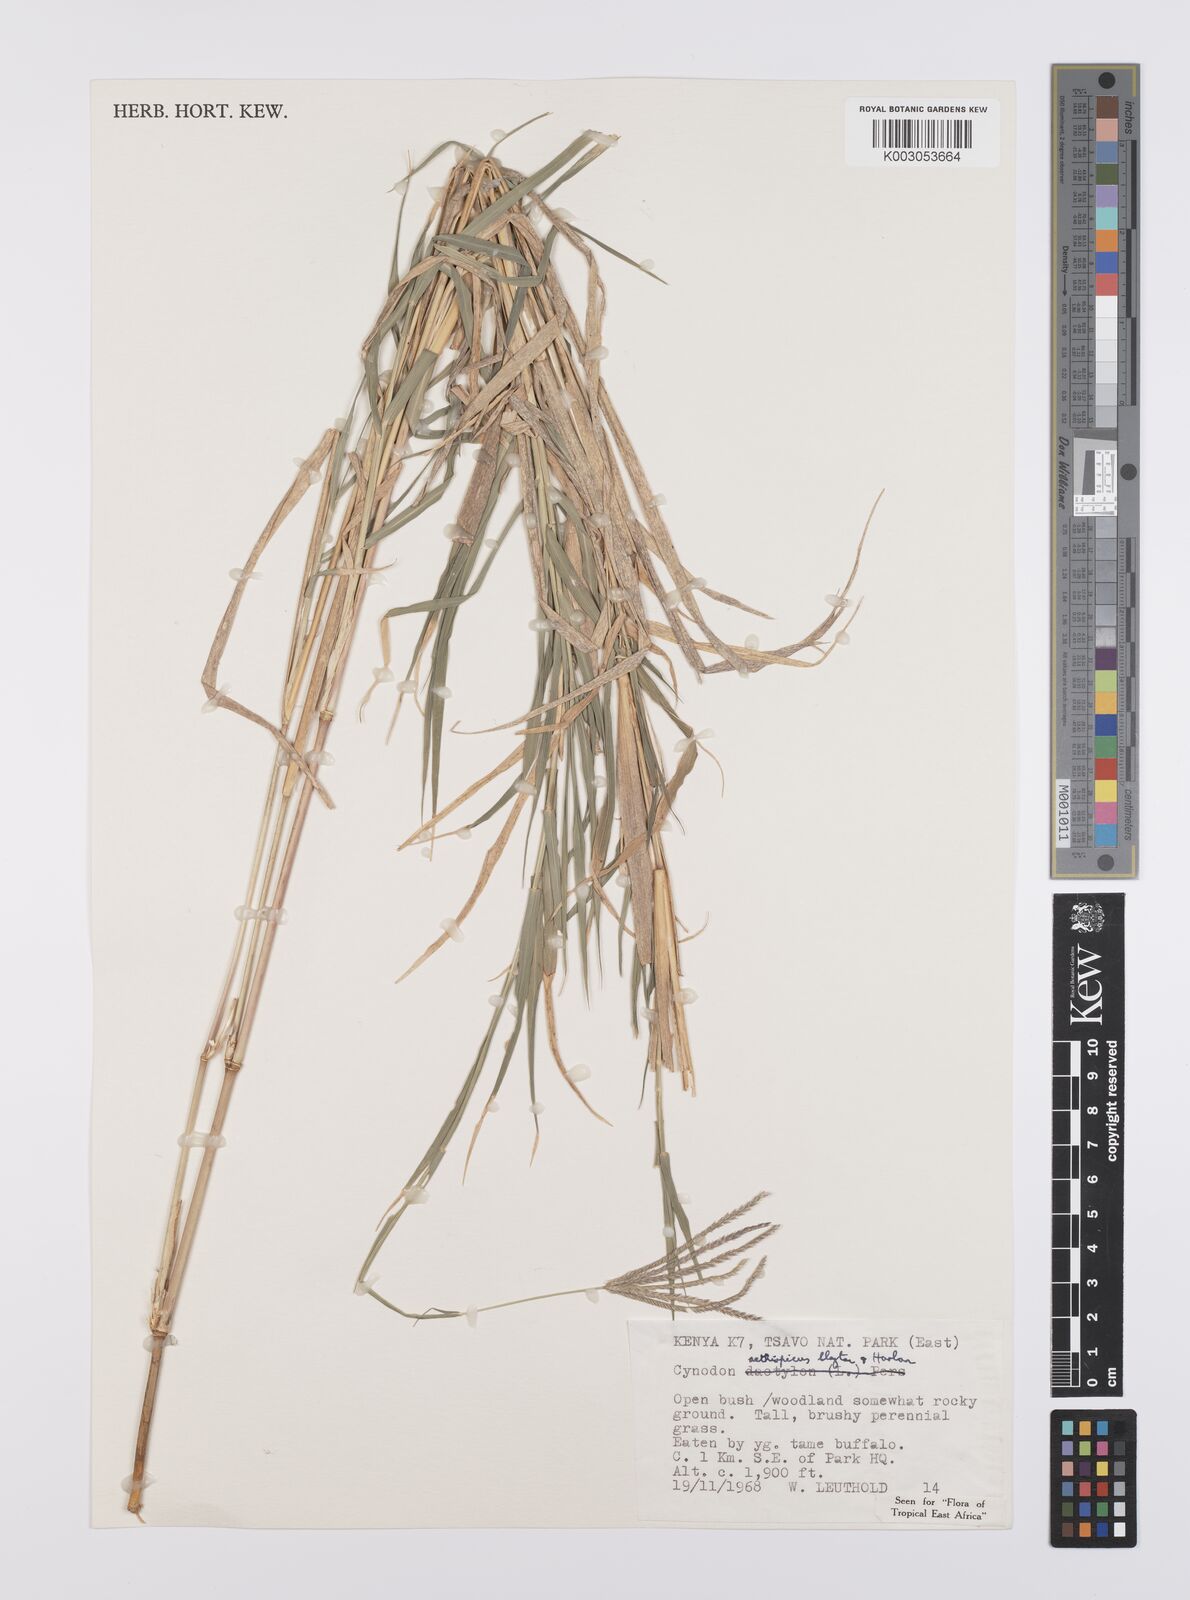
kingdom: Plantae
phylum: Tracheophyta
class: Liliopsida
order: Poales
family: Poaceae
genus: Cynodon
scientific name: Cynodon aethiopicus
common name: Ethiopian dogstooth grass
